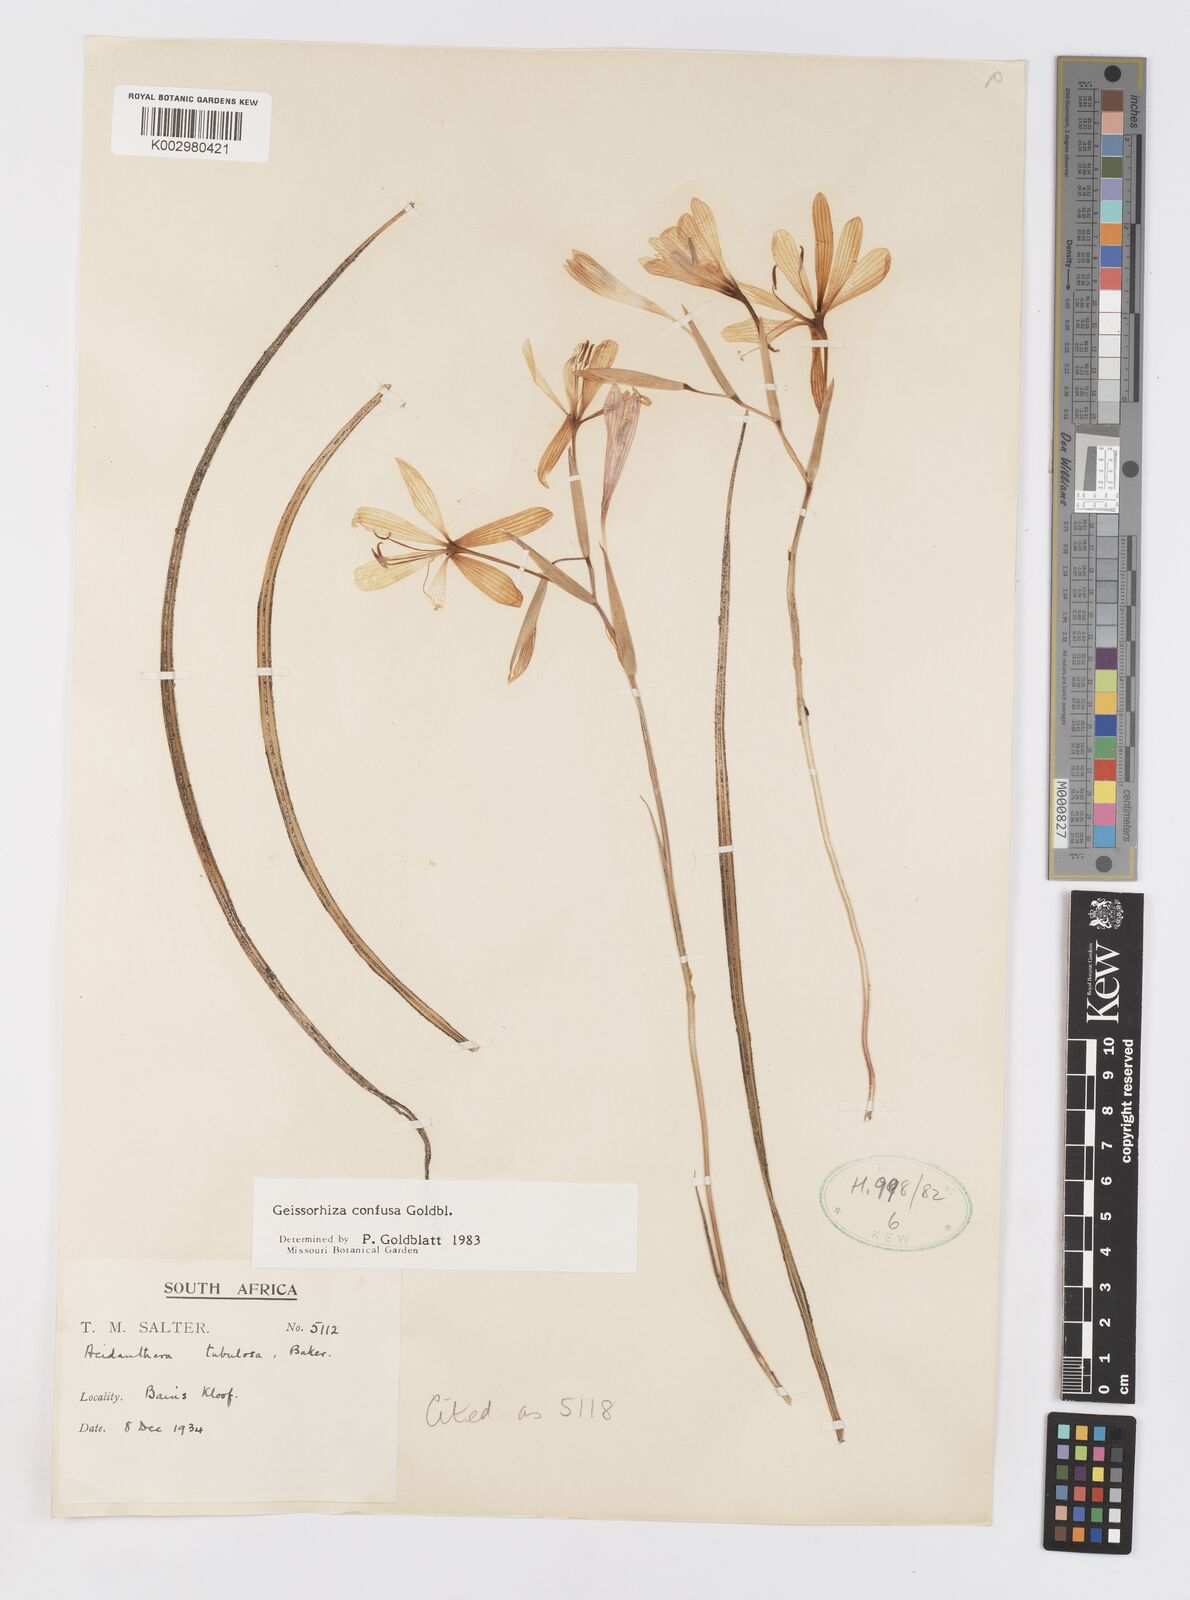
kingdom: Plantae
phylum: Tracheophyta
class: Liliopsida
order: Asparagales
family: Iridaceae
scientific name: Iridaceae
